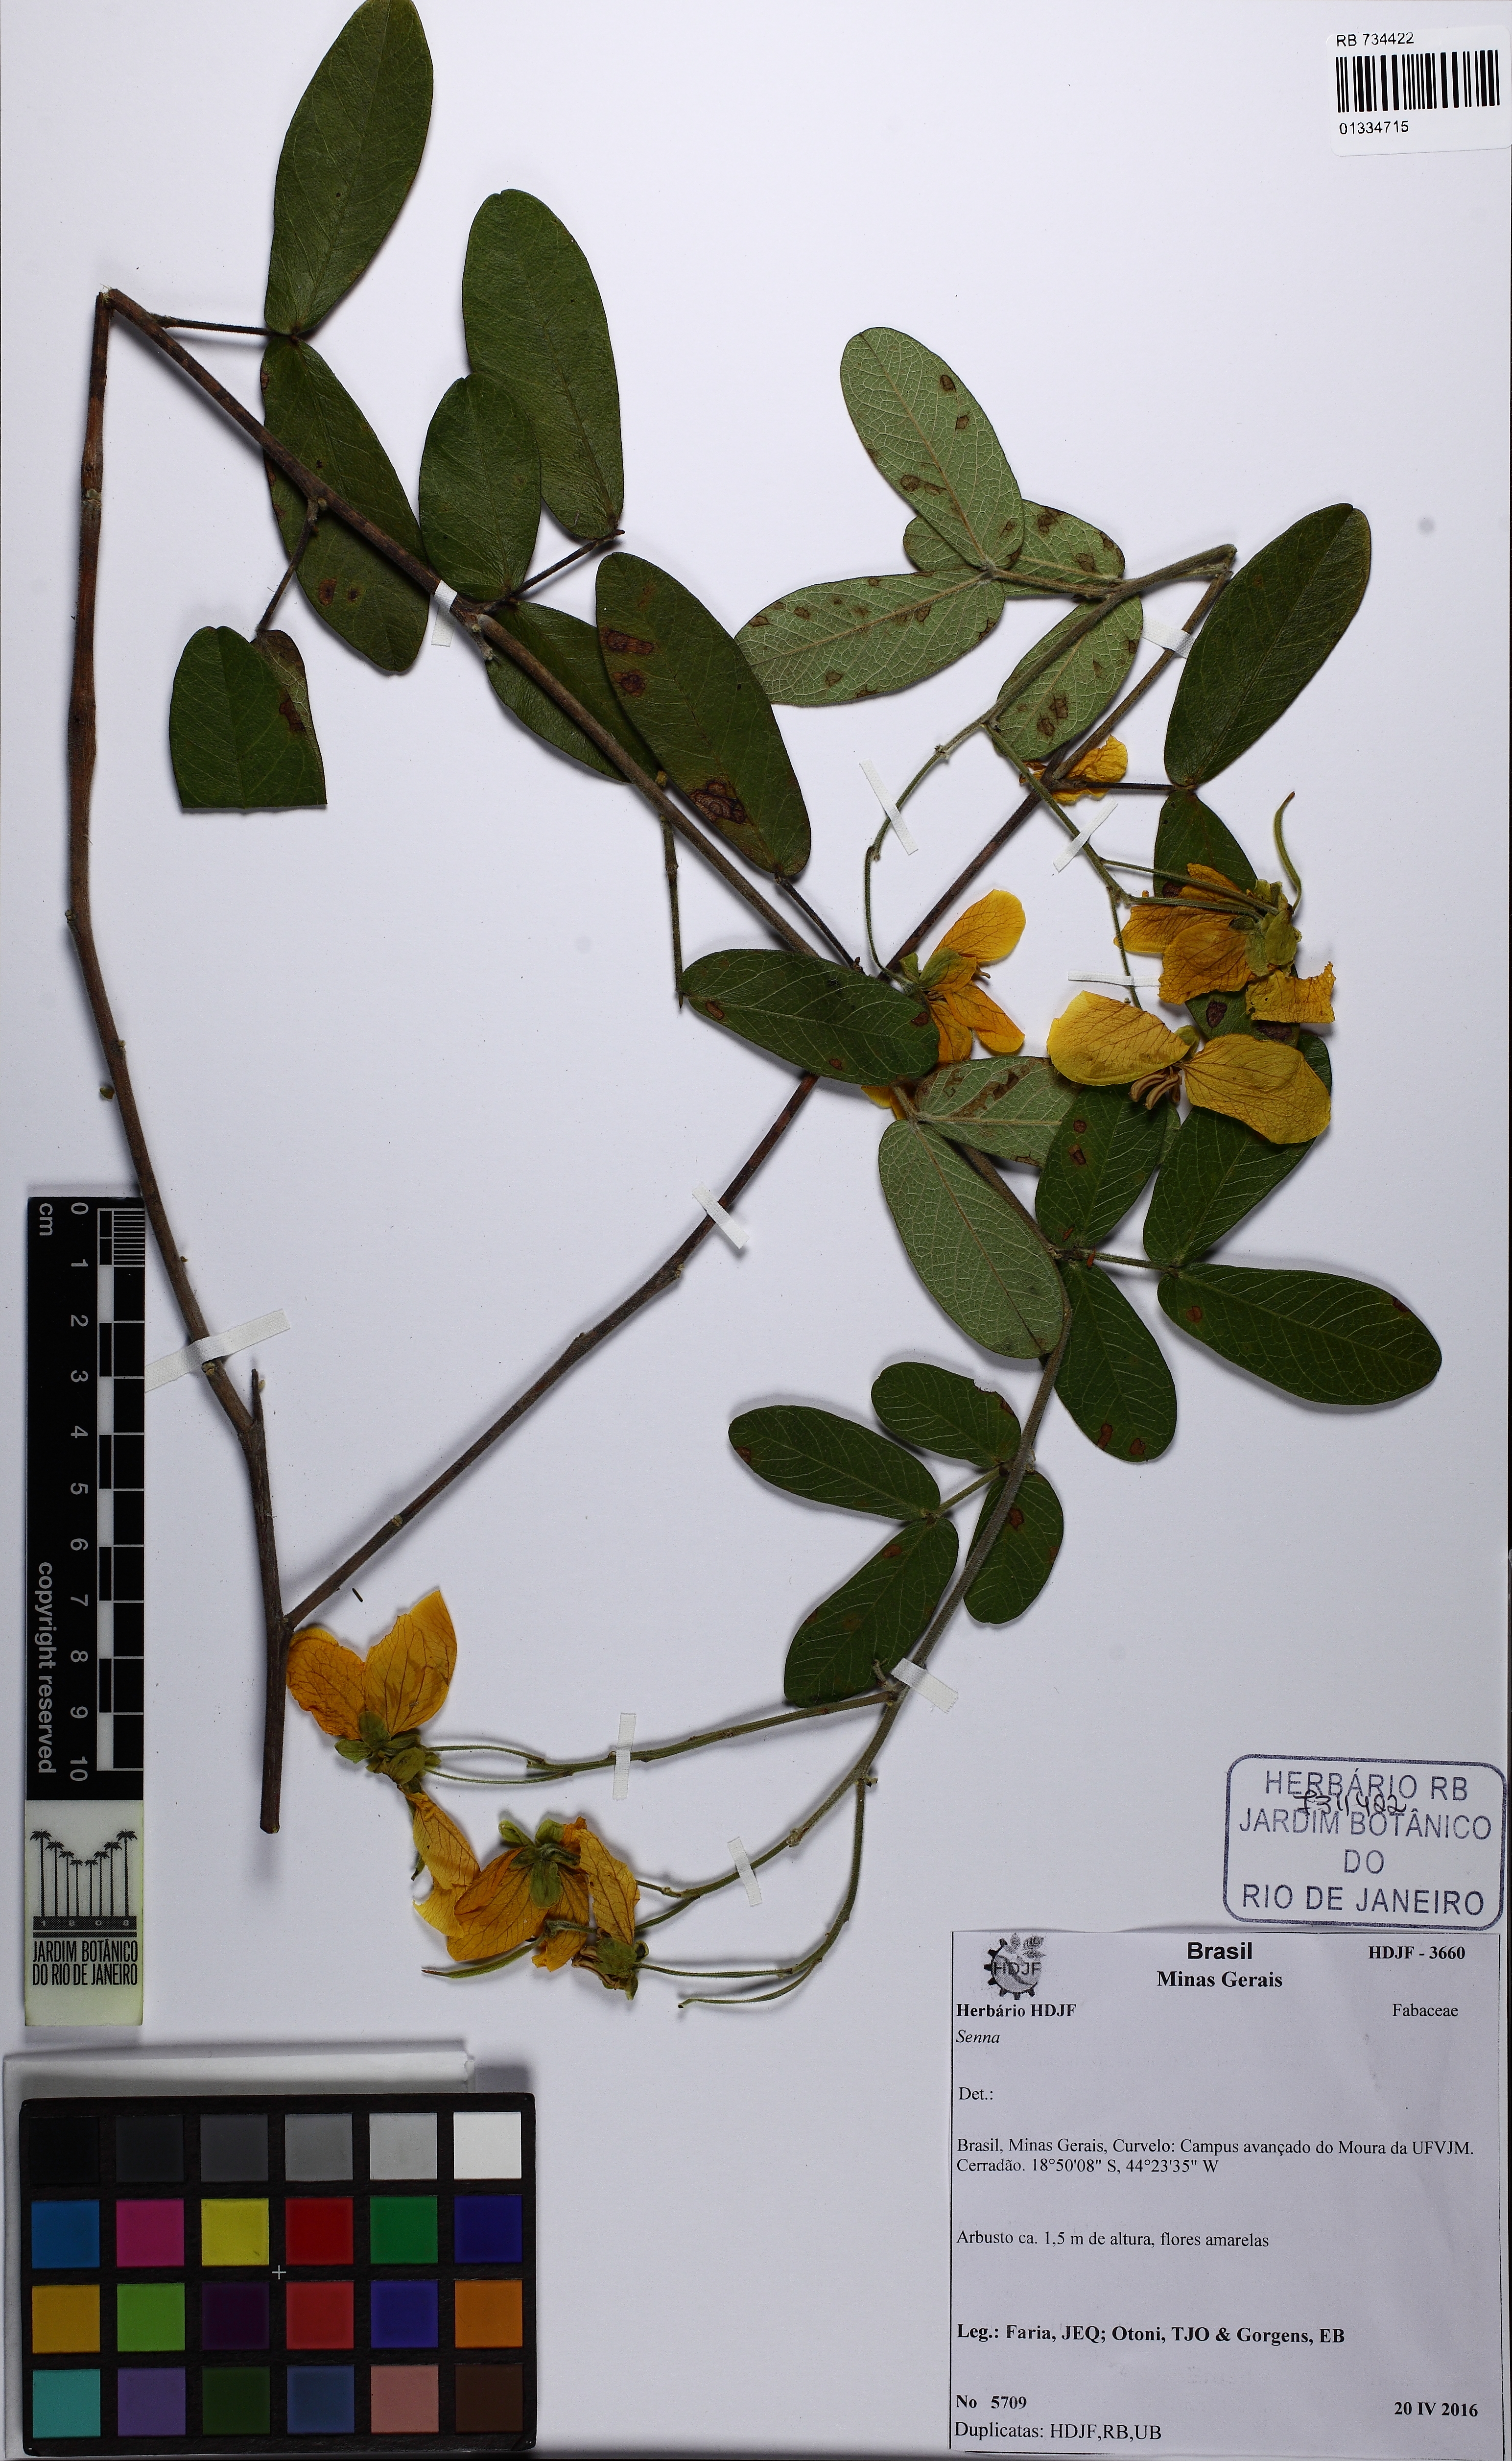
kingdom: Plantae
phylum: Tracheophyta
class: Magnoliopsida
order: Fabales
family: Fabaceae
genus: Senna
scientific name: Senna
